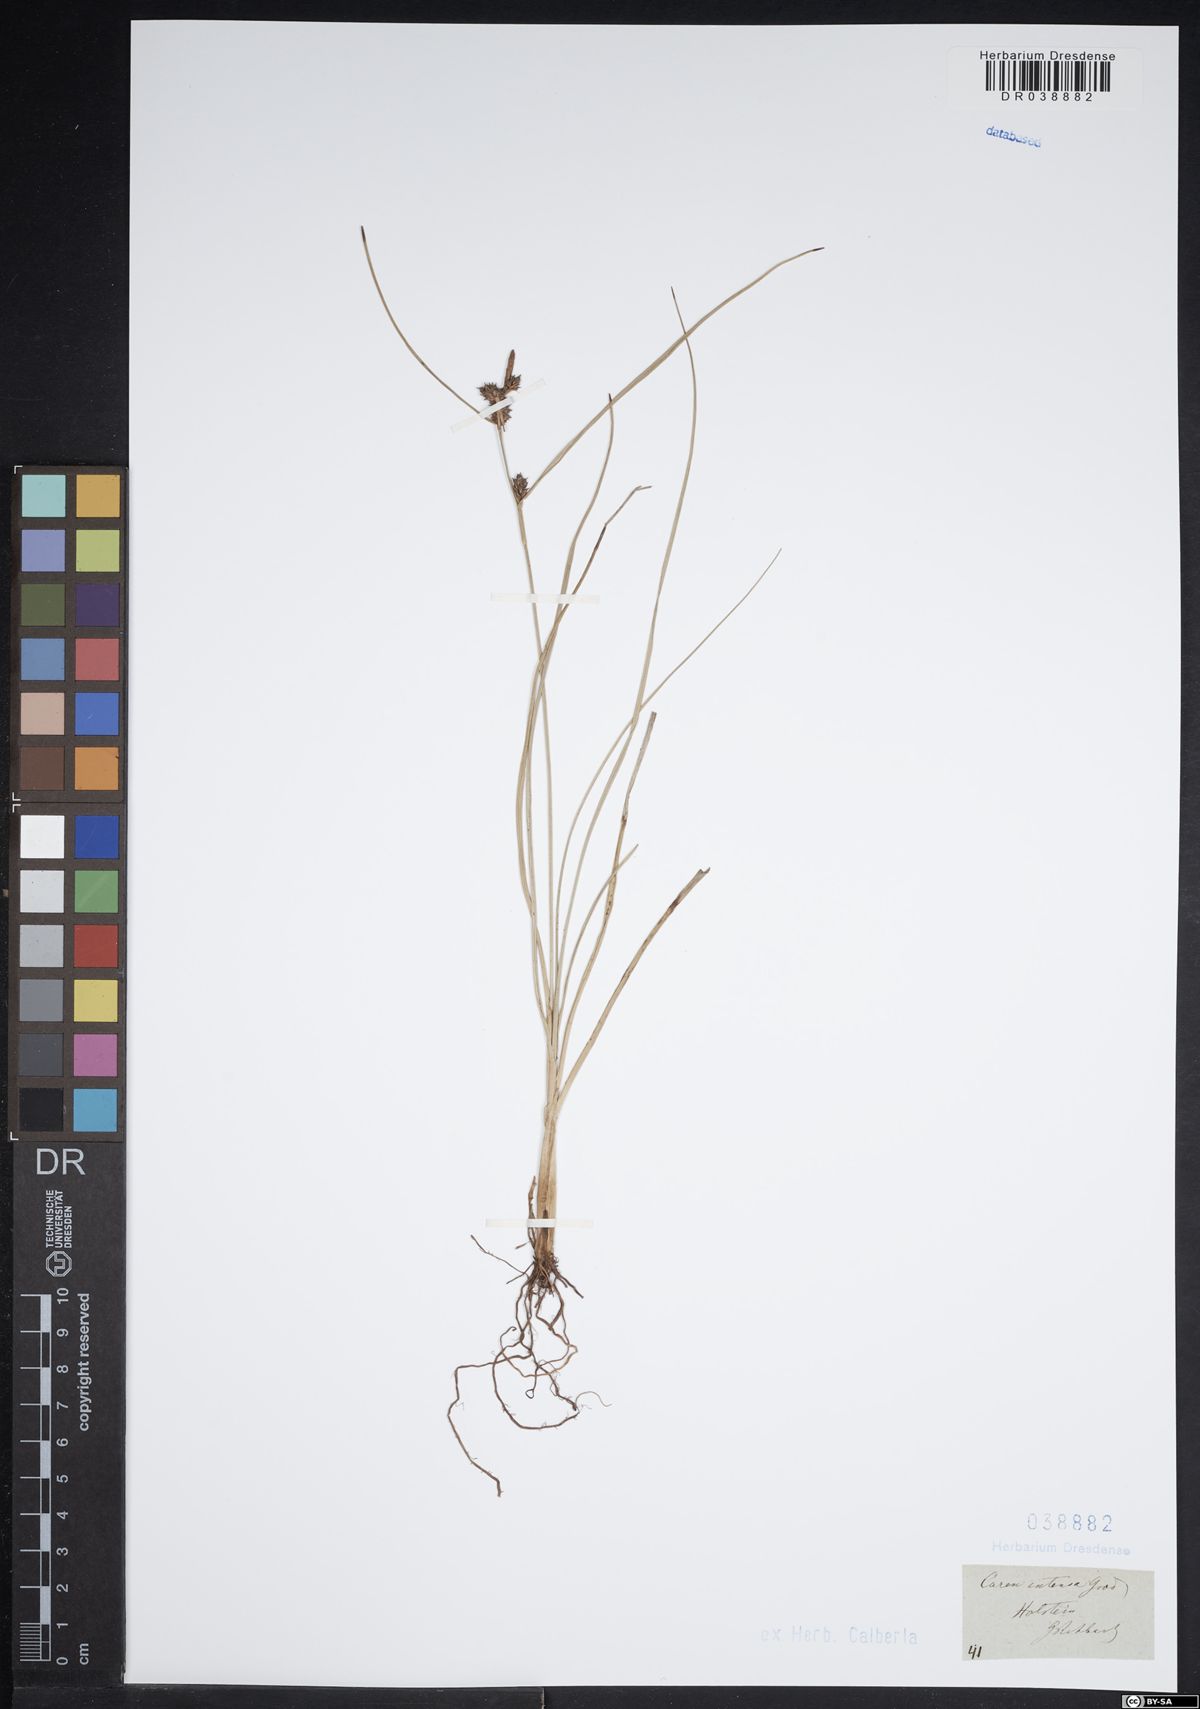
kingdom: Plantae
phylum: Tracheophyta
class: Liliopsida
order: Poales
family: Cyperaceae
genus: Carex
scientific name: Carex extensa
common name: Long-bracted sedge
